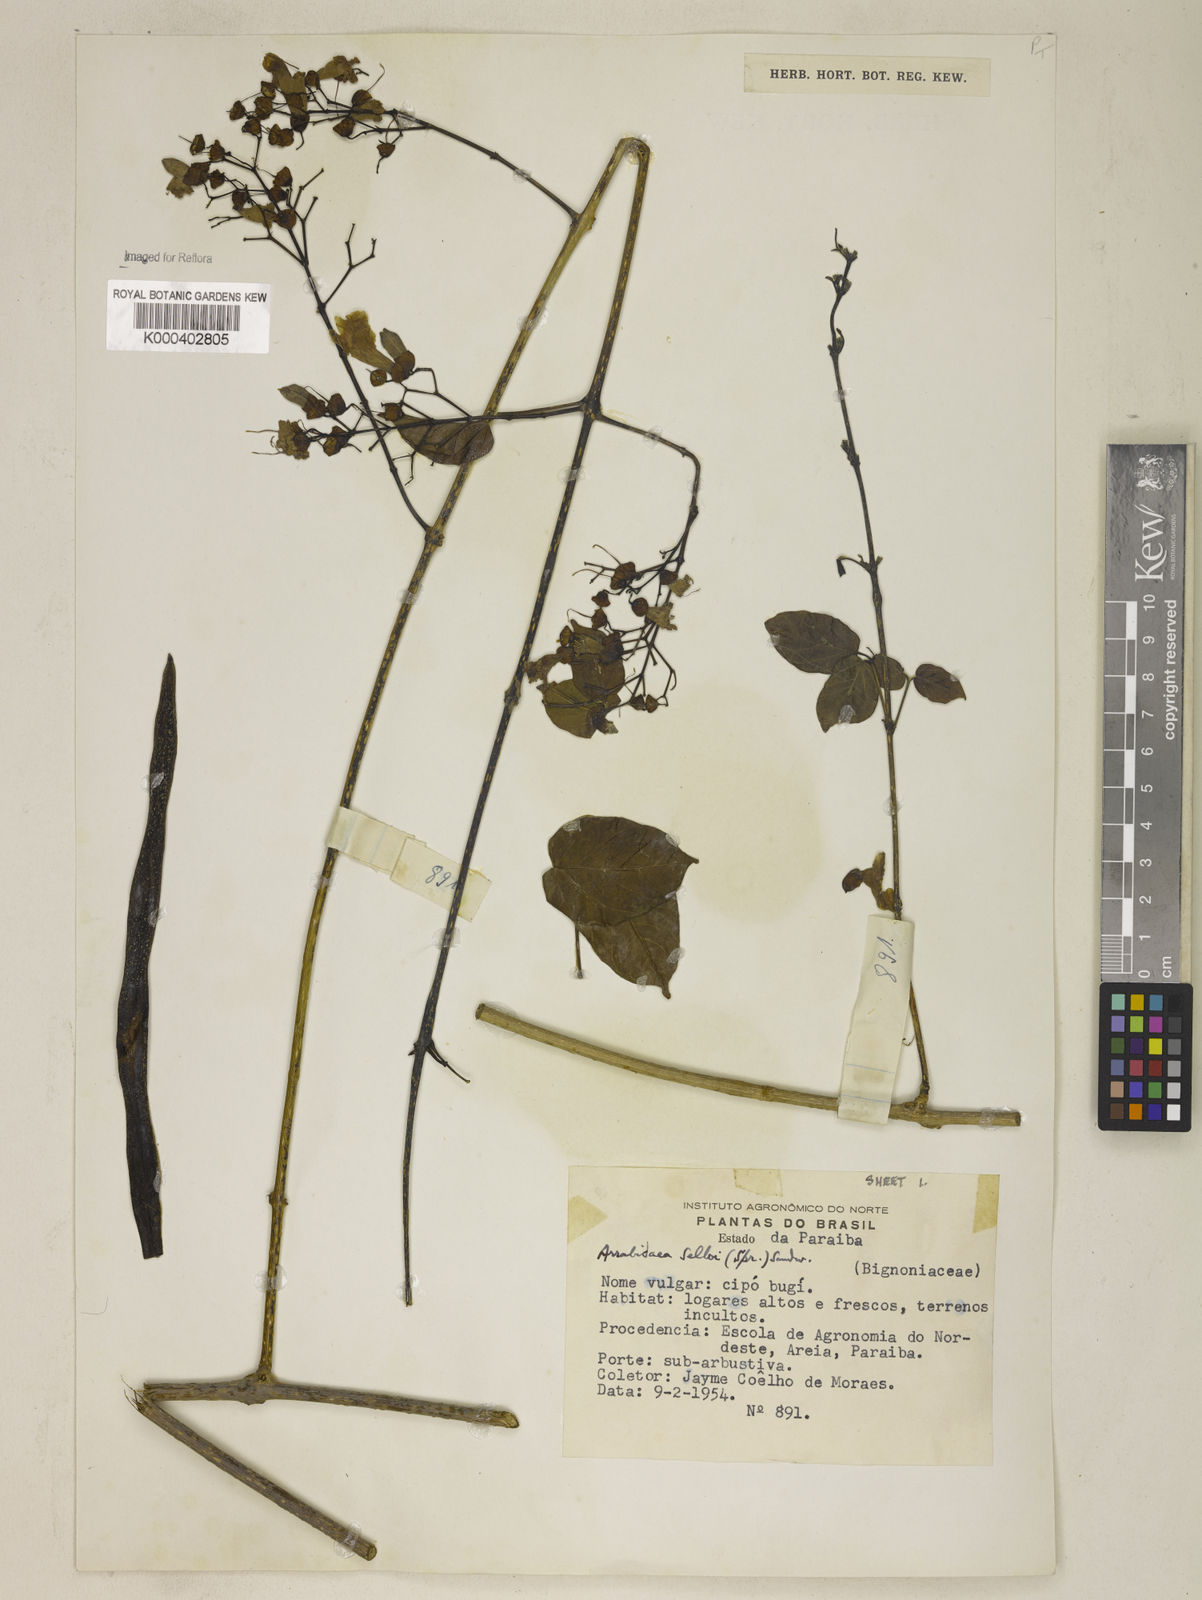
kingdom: Plantae
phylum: Tracheophyta
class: Magnoliopsida
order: Lamiales
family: Bignoniaceae
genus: Tanaecium
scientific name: Tanaecium selloi
